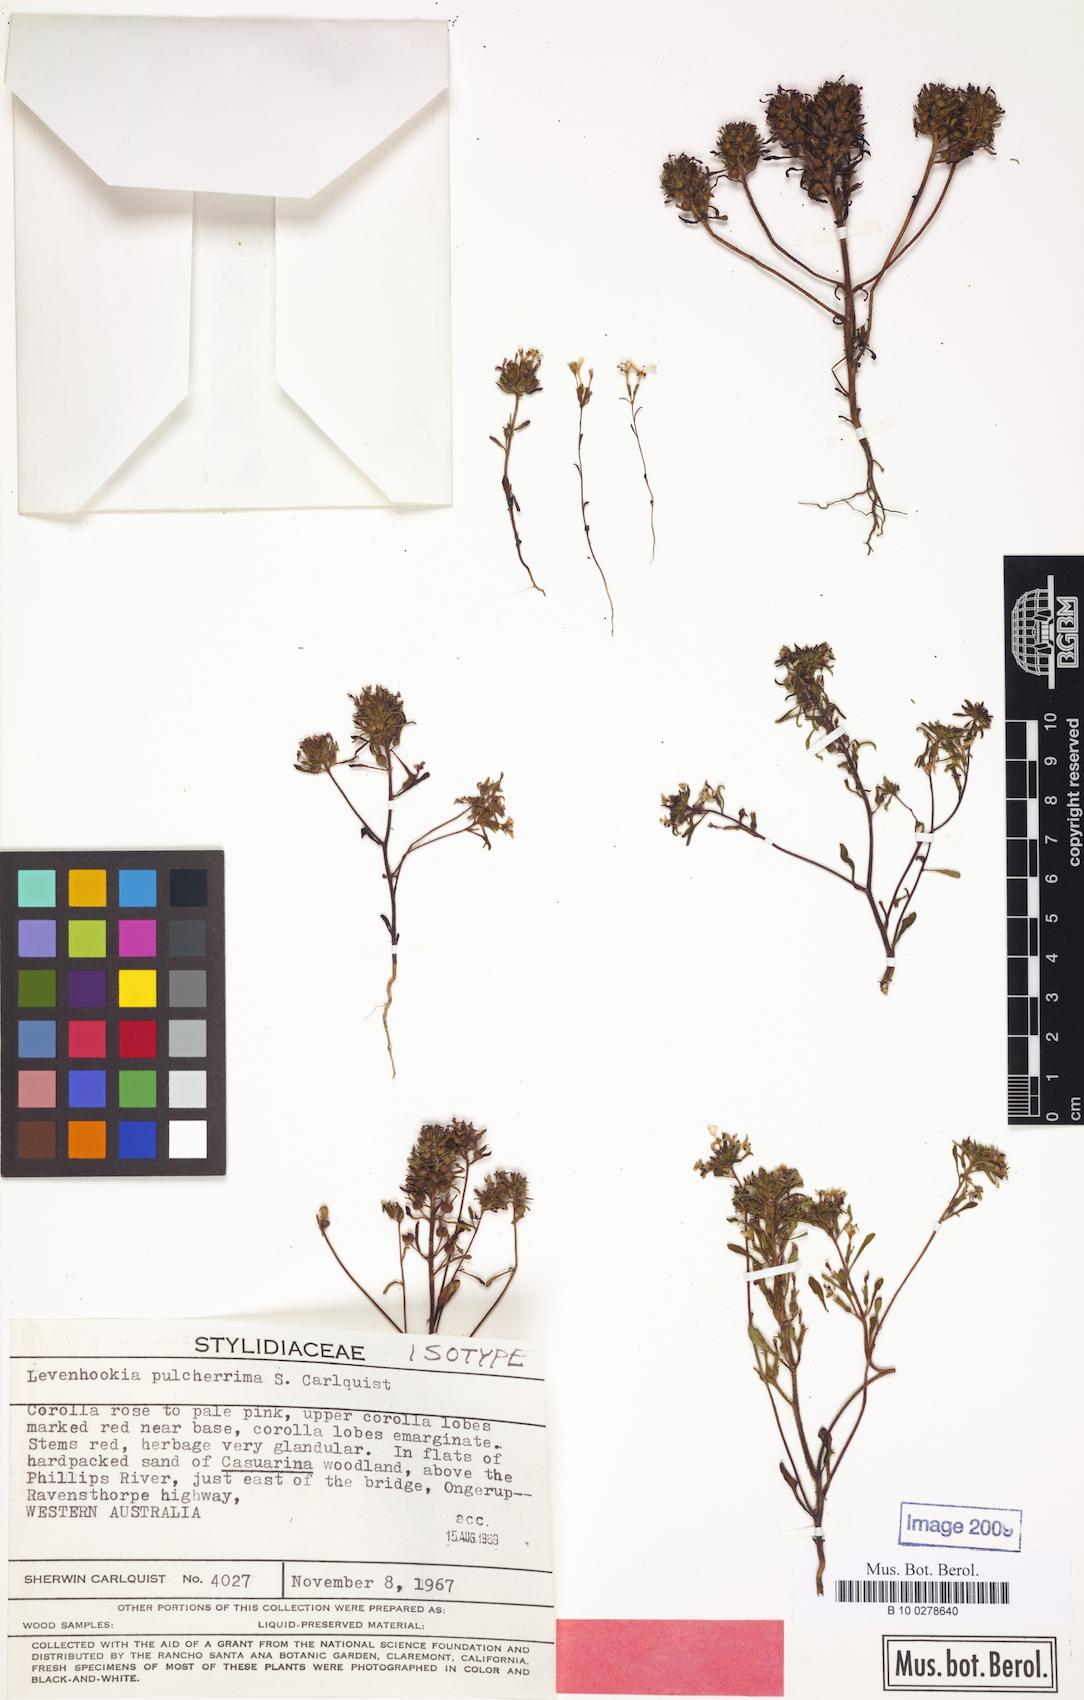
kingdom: Plantae
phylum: Tracheophyta
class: Magnoliopsida
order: Asterales
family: Stylidiaceae
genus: Levenhookia
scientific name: Levenhookia pulcherrima
